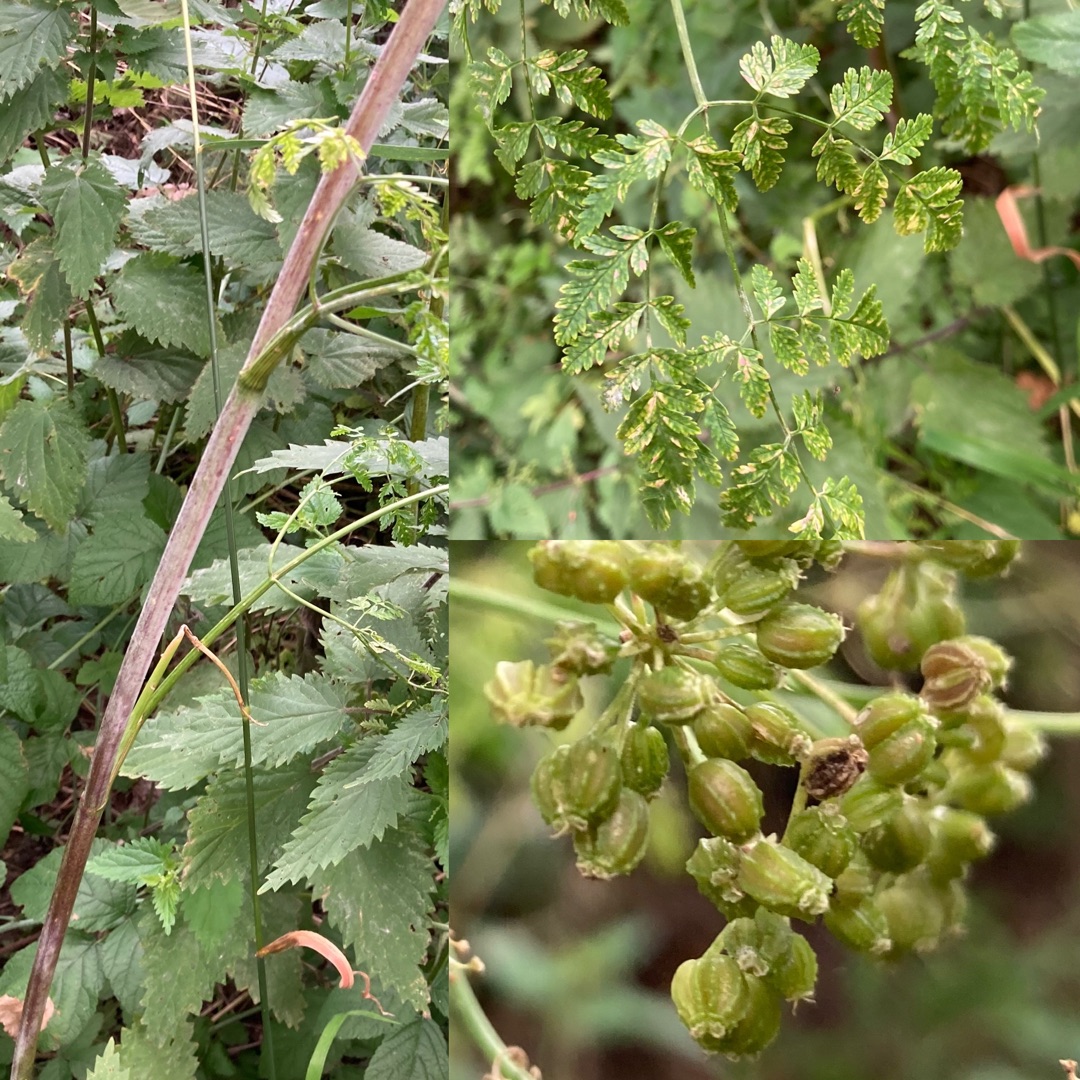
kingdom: Plantae
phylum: Tracheophyta
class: Magnoliopsida
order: Apiales
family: Apiaceae
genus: Conium
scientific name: Conium maculatum
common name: Skarntyde
